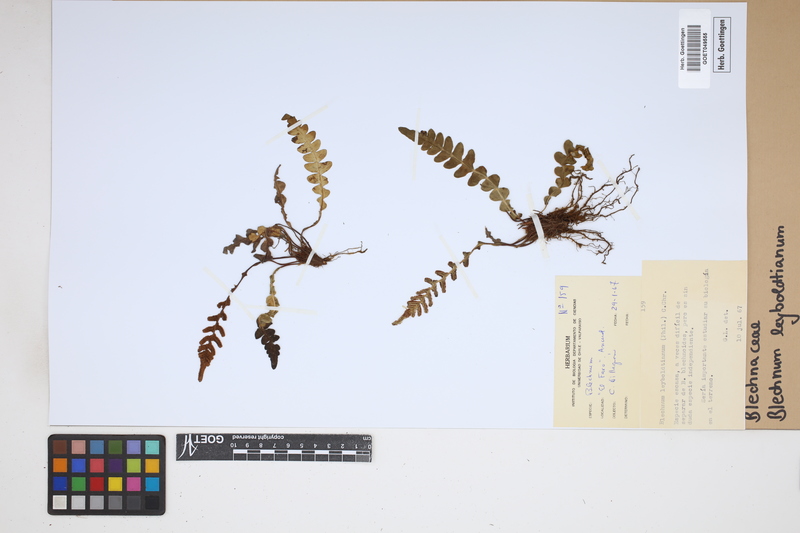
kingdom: Plantae
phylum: Tracheophyta
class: Polypodiopsida
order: Polypodiales
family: Blechnaceae
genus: Austroblechnum
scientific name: Austroblechnum leyboldtianum
